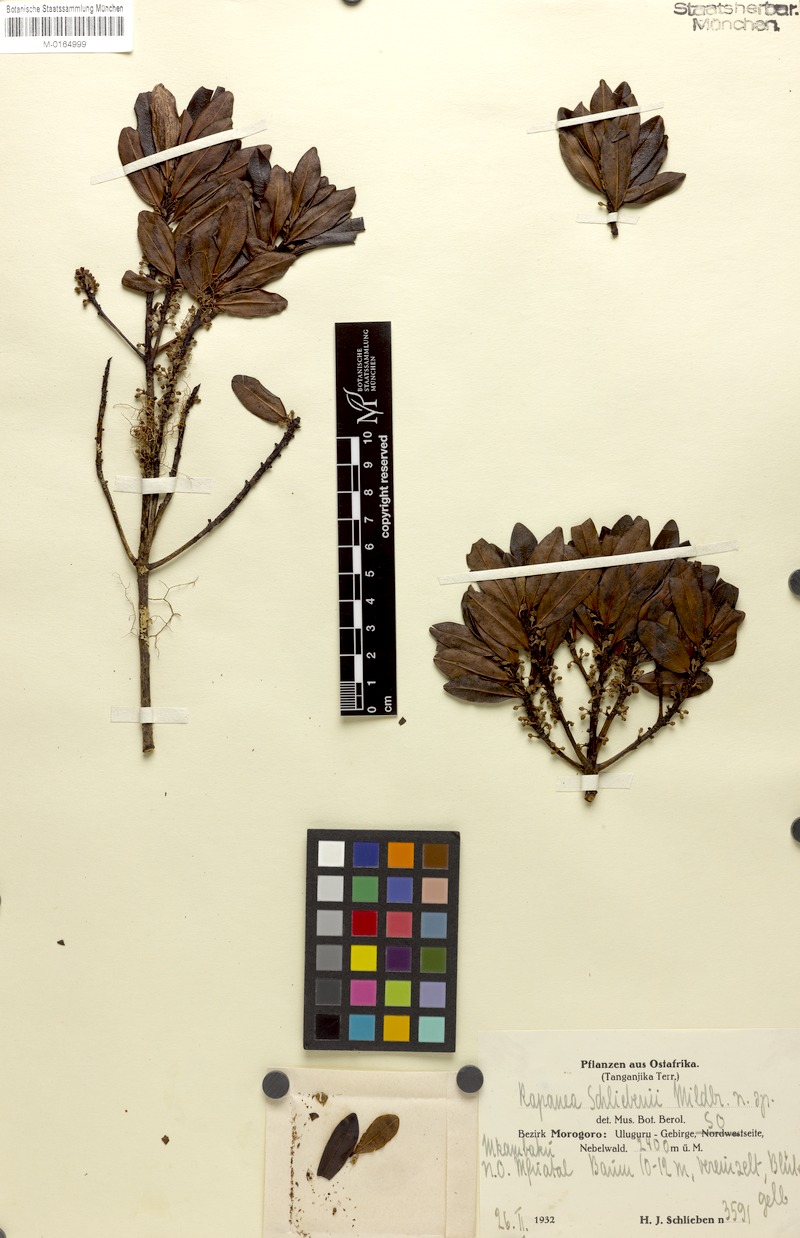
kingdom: Plantae
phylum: Tracheophyta
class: Magnoliopsida
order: Ericales
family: Primulaceae
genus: Myrsine
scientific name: Myrsine melanophloeos
